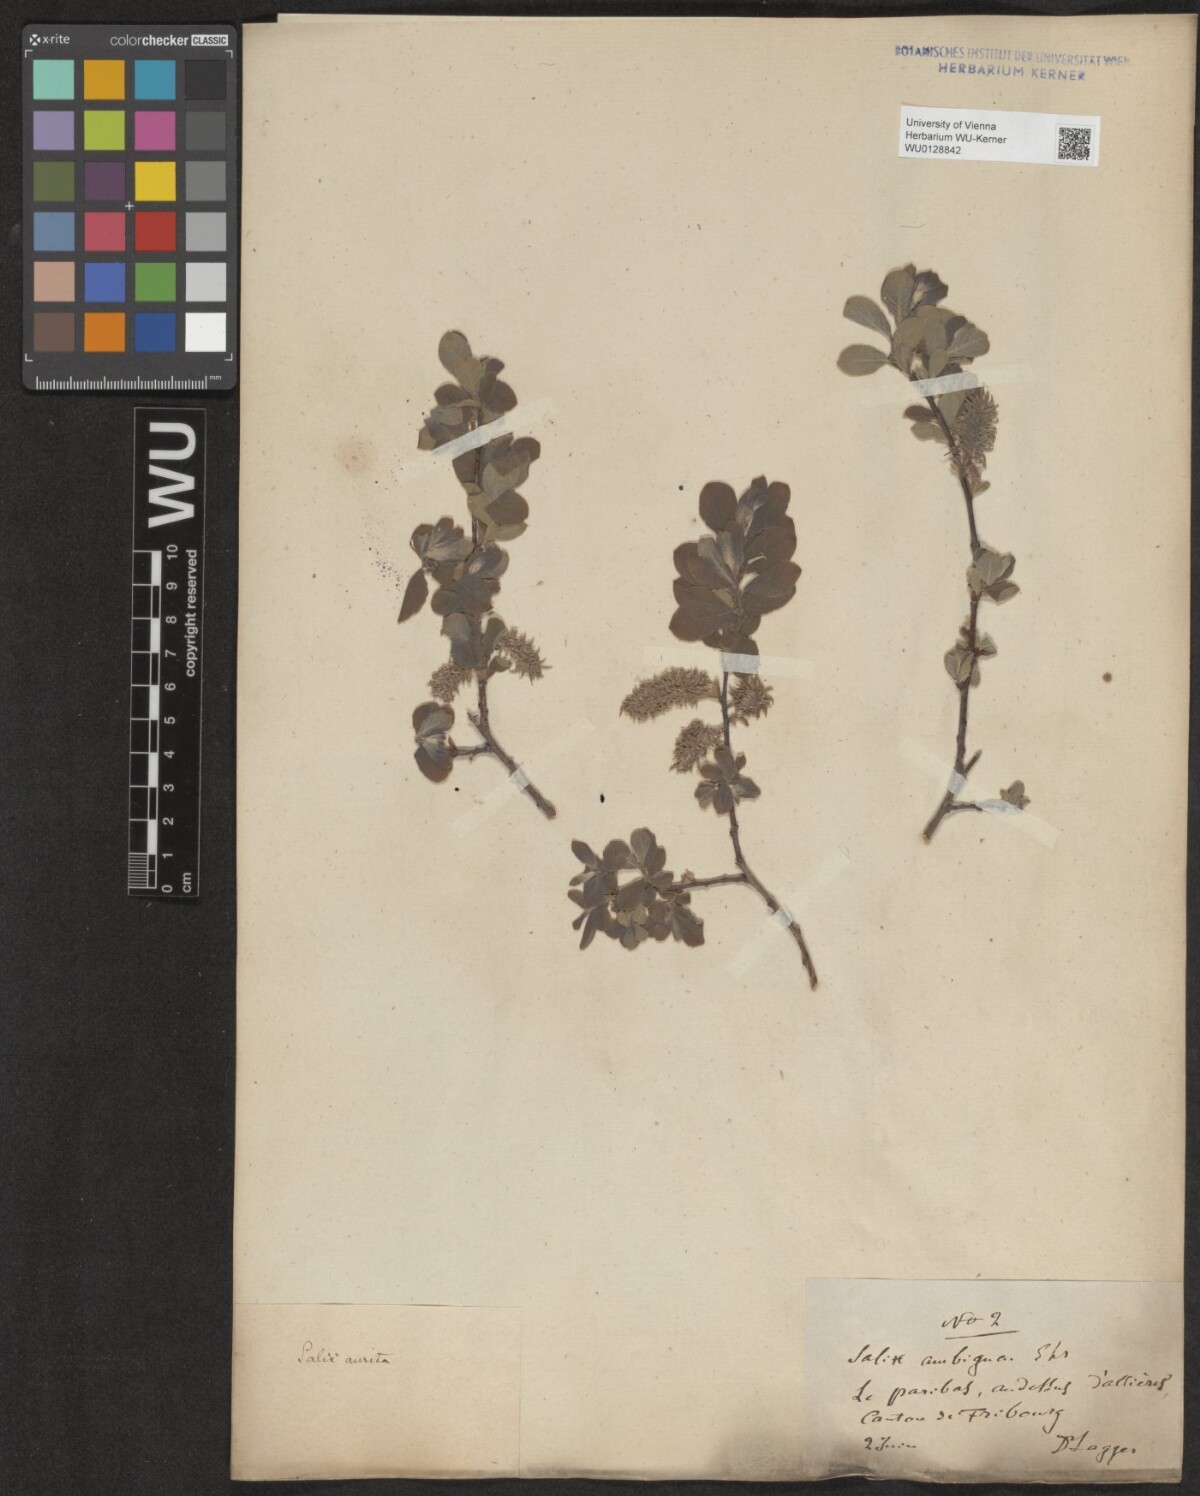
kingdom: Plantae
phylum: Tracheophyta
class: Magnoliopsida
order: Malpighiales
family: Salicaceae
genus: Salix
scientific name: Salix aurita
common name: Eared willow
